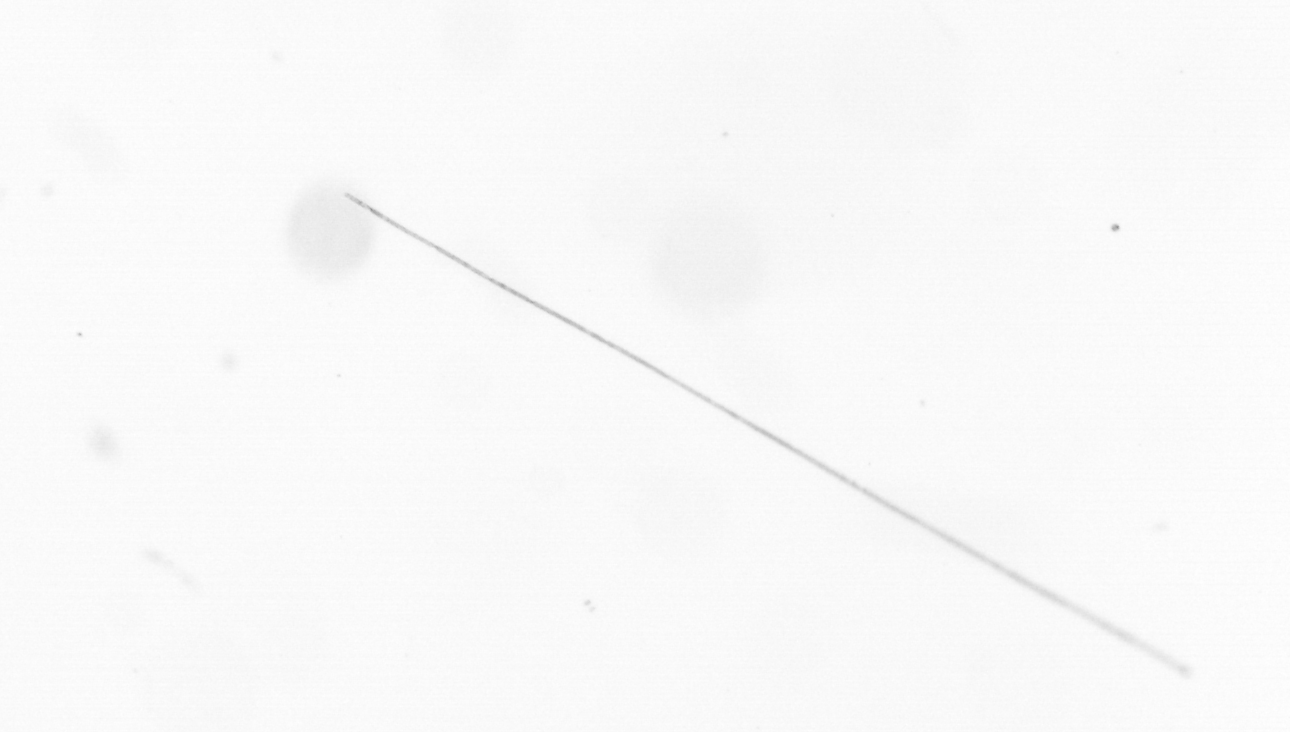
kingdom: Chromista
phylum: Ochrophyta
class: Bacillariophyceae
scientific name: Bacillariophyceae
